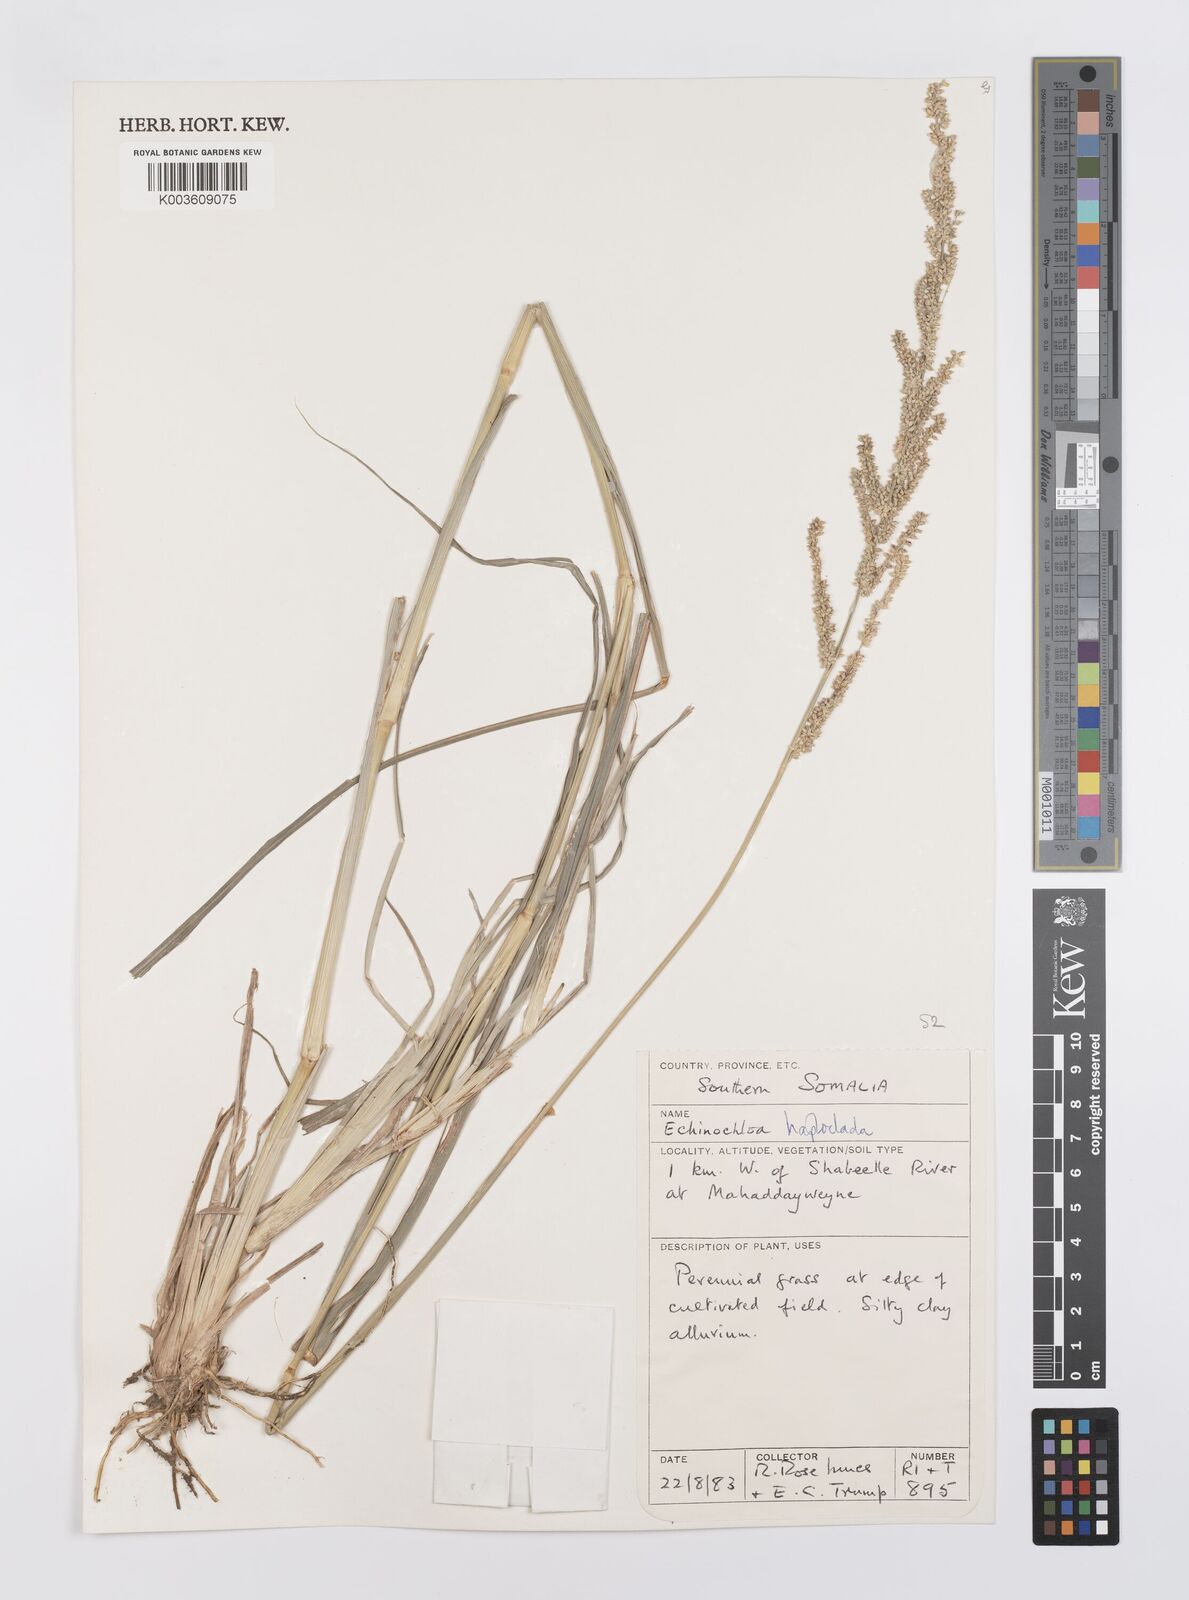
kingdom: Plantae
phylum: Tracheophyta
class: Liliopsida
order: Poales
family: Poaceae
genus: Echinochloa
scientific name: Echinochloa haploclada
